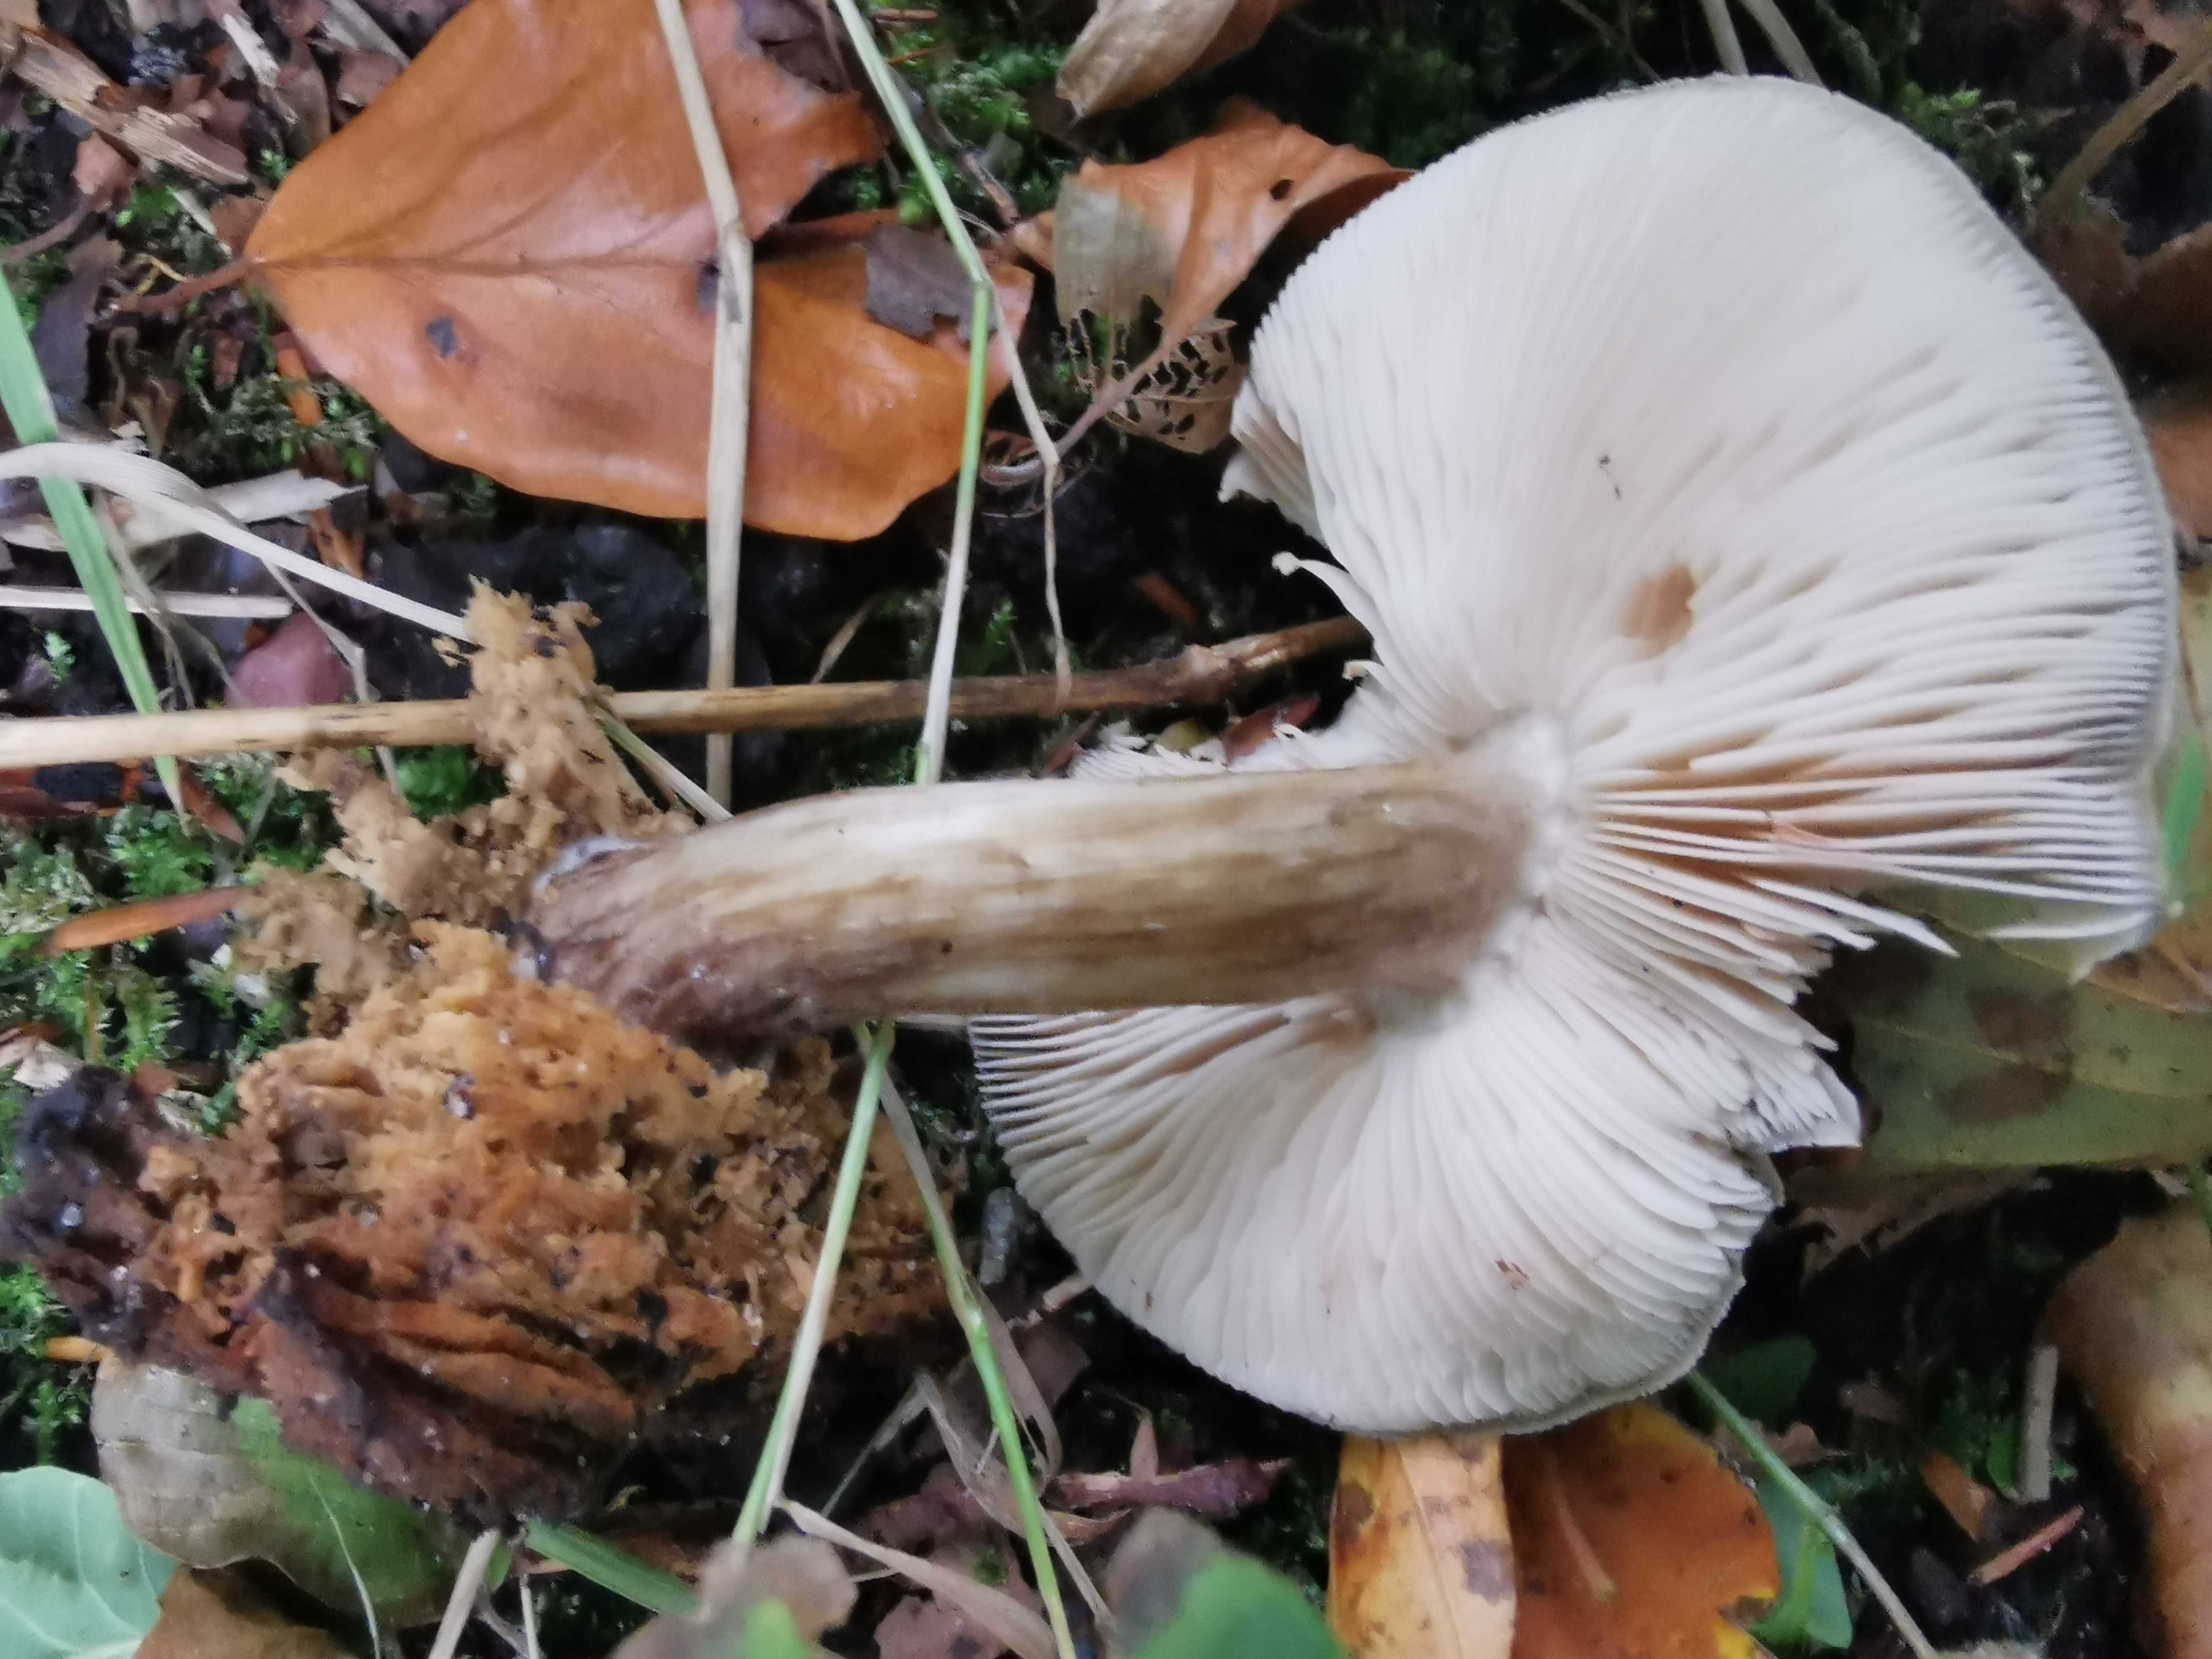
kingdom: Fungi
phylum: Basidiomycota
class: Agaricomycetes
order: Agaricales
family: Pluteaceae
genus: Pluteus
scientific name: Pluteus cervinus
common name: sodfarvet skærmhat
